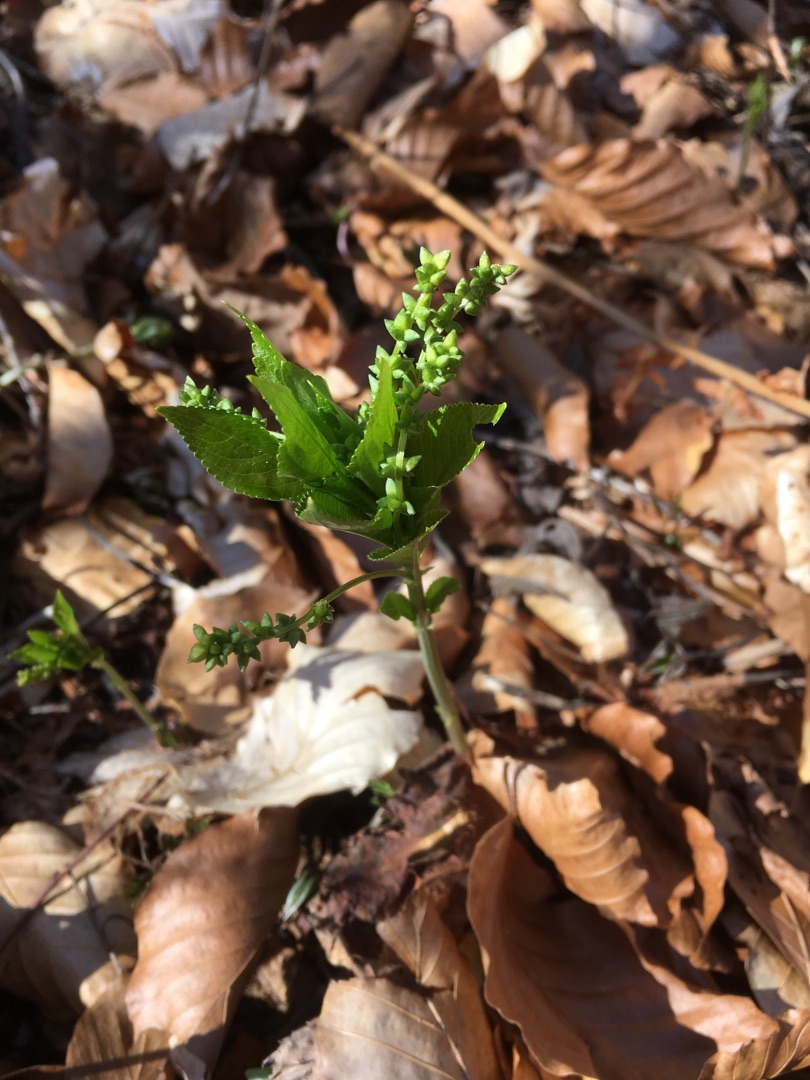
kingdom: Plantae
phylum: Tracheophyta
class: Magnoliopsida
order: Malpighiales
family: Euphorbiaceae
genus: Mercurialis
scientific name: Mercurialis perennis
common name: Almindelig bingelurt
